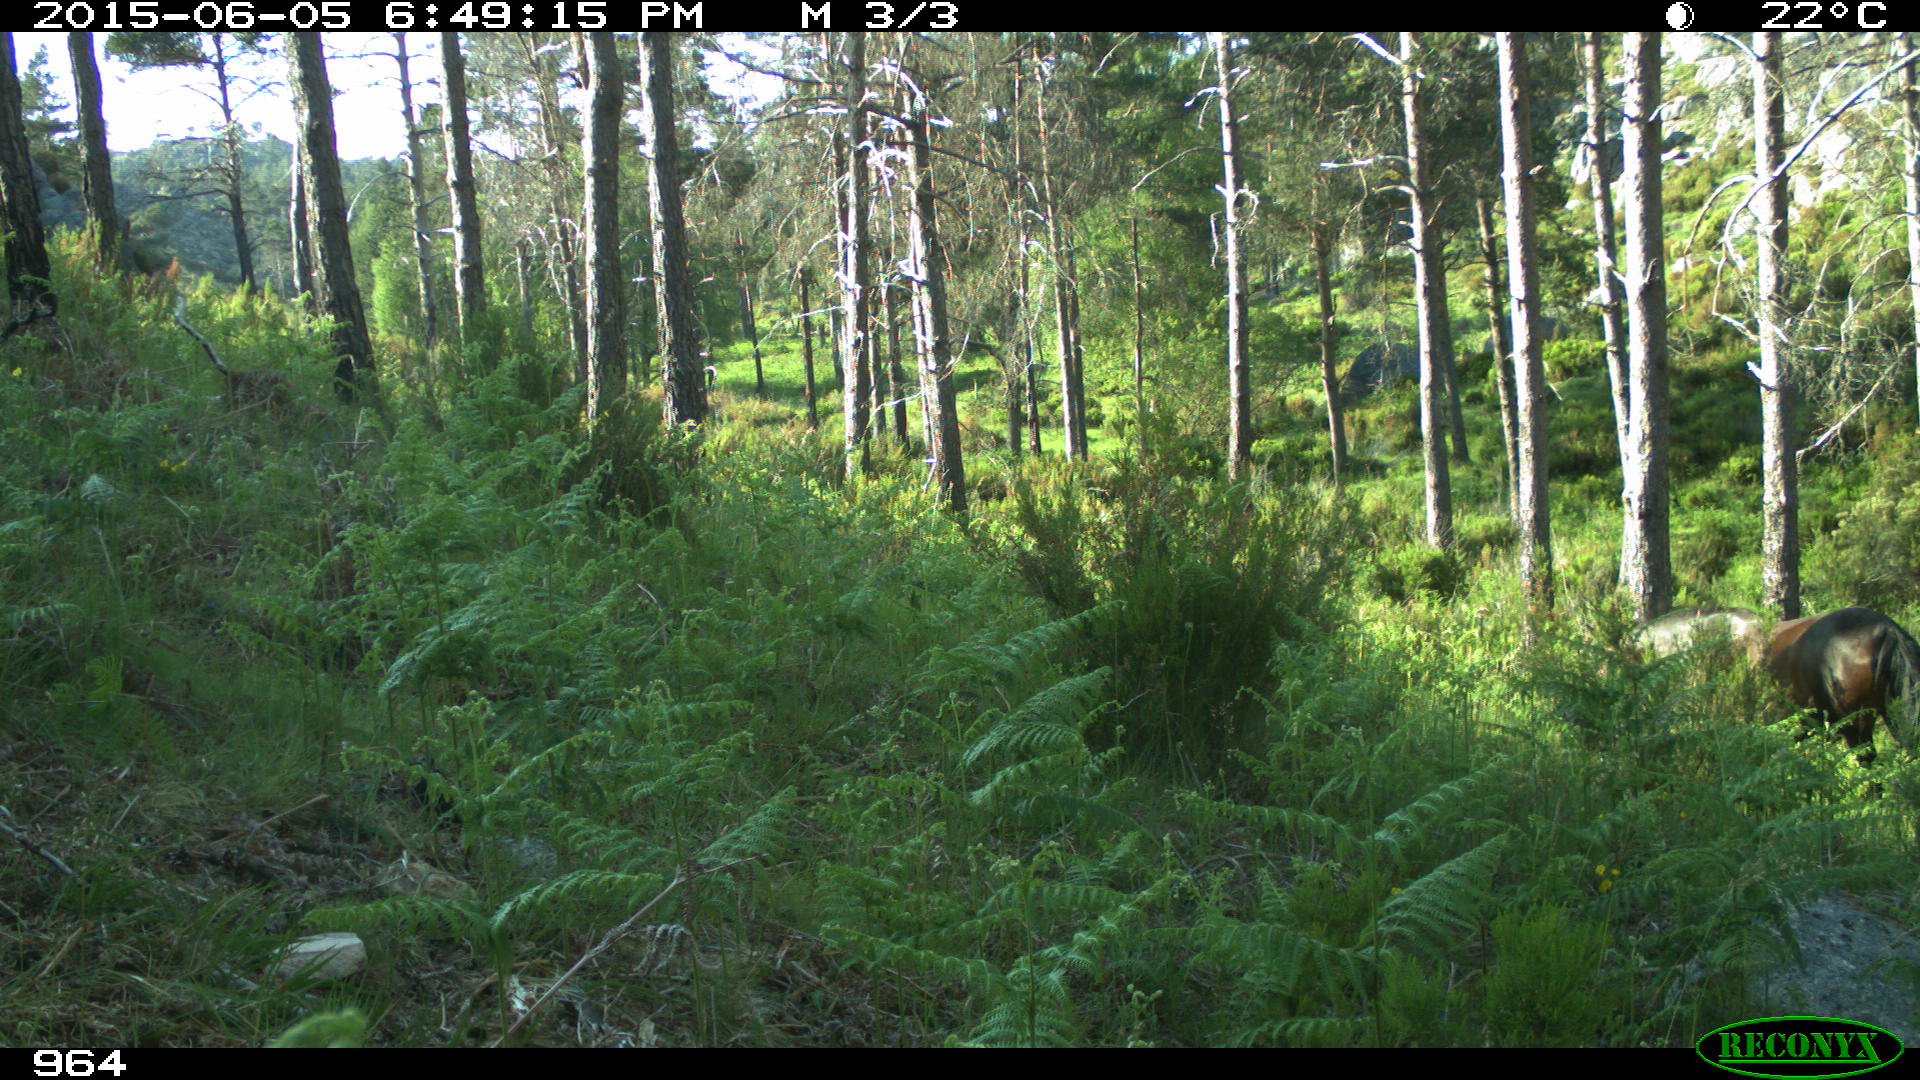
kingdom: Animalia
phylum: Chordata
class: Mammalia
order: Perissodactyla
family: Equidae
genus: Equus
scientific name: Equus caballus
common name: Horse
